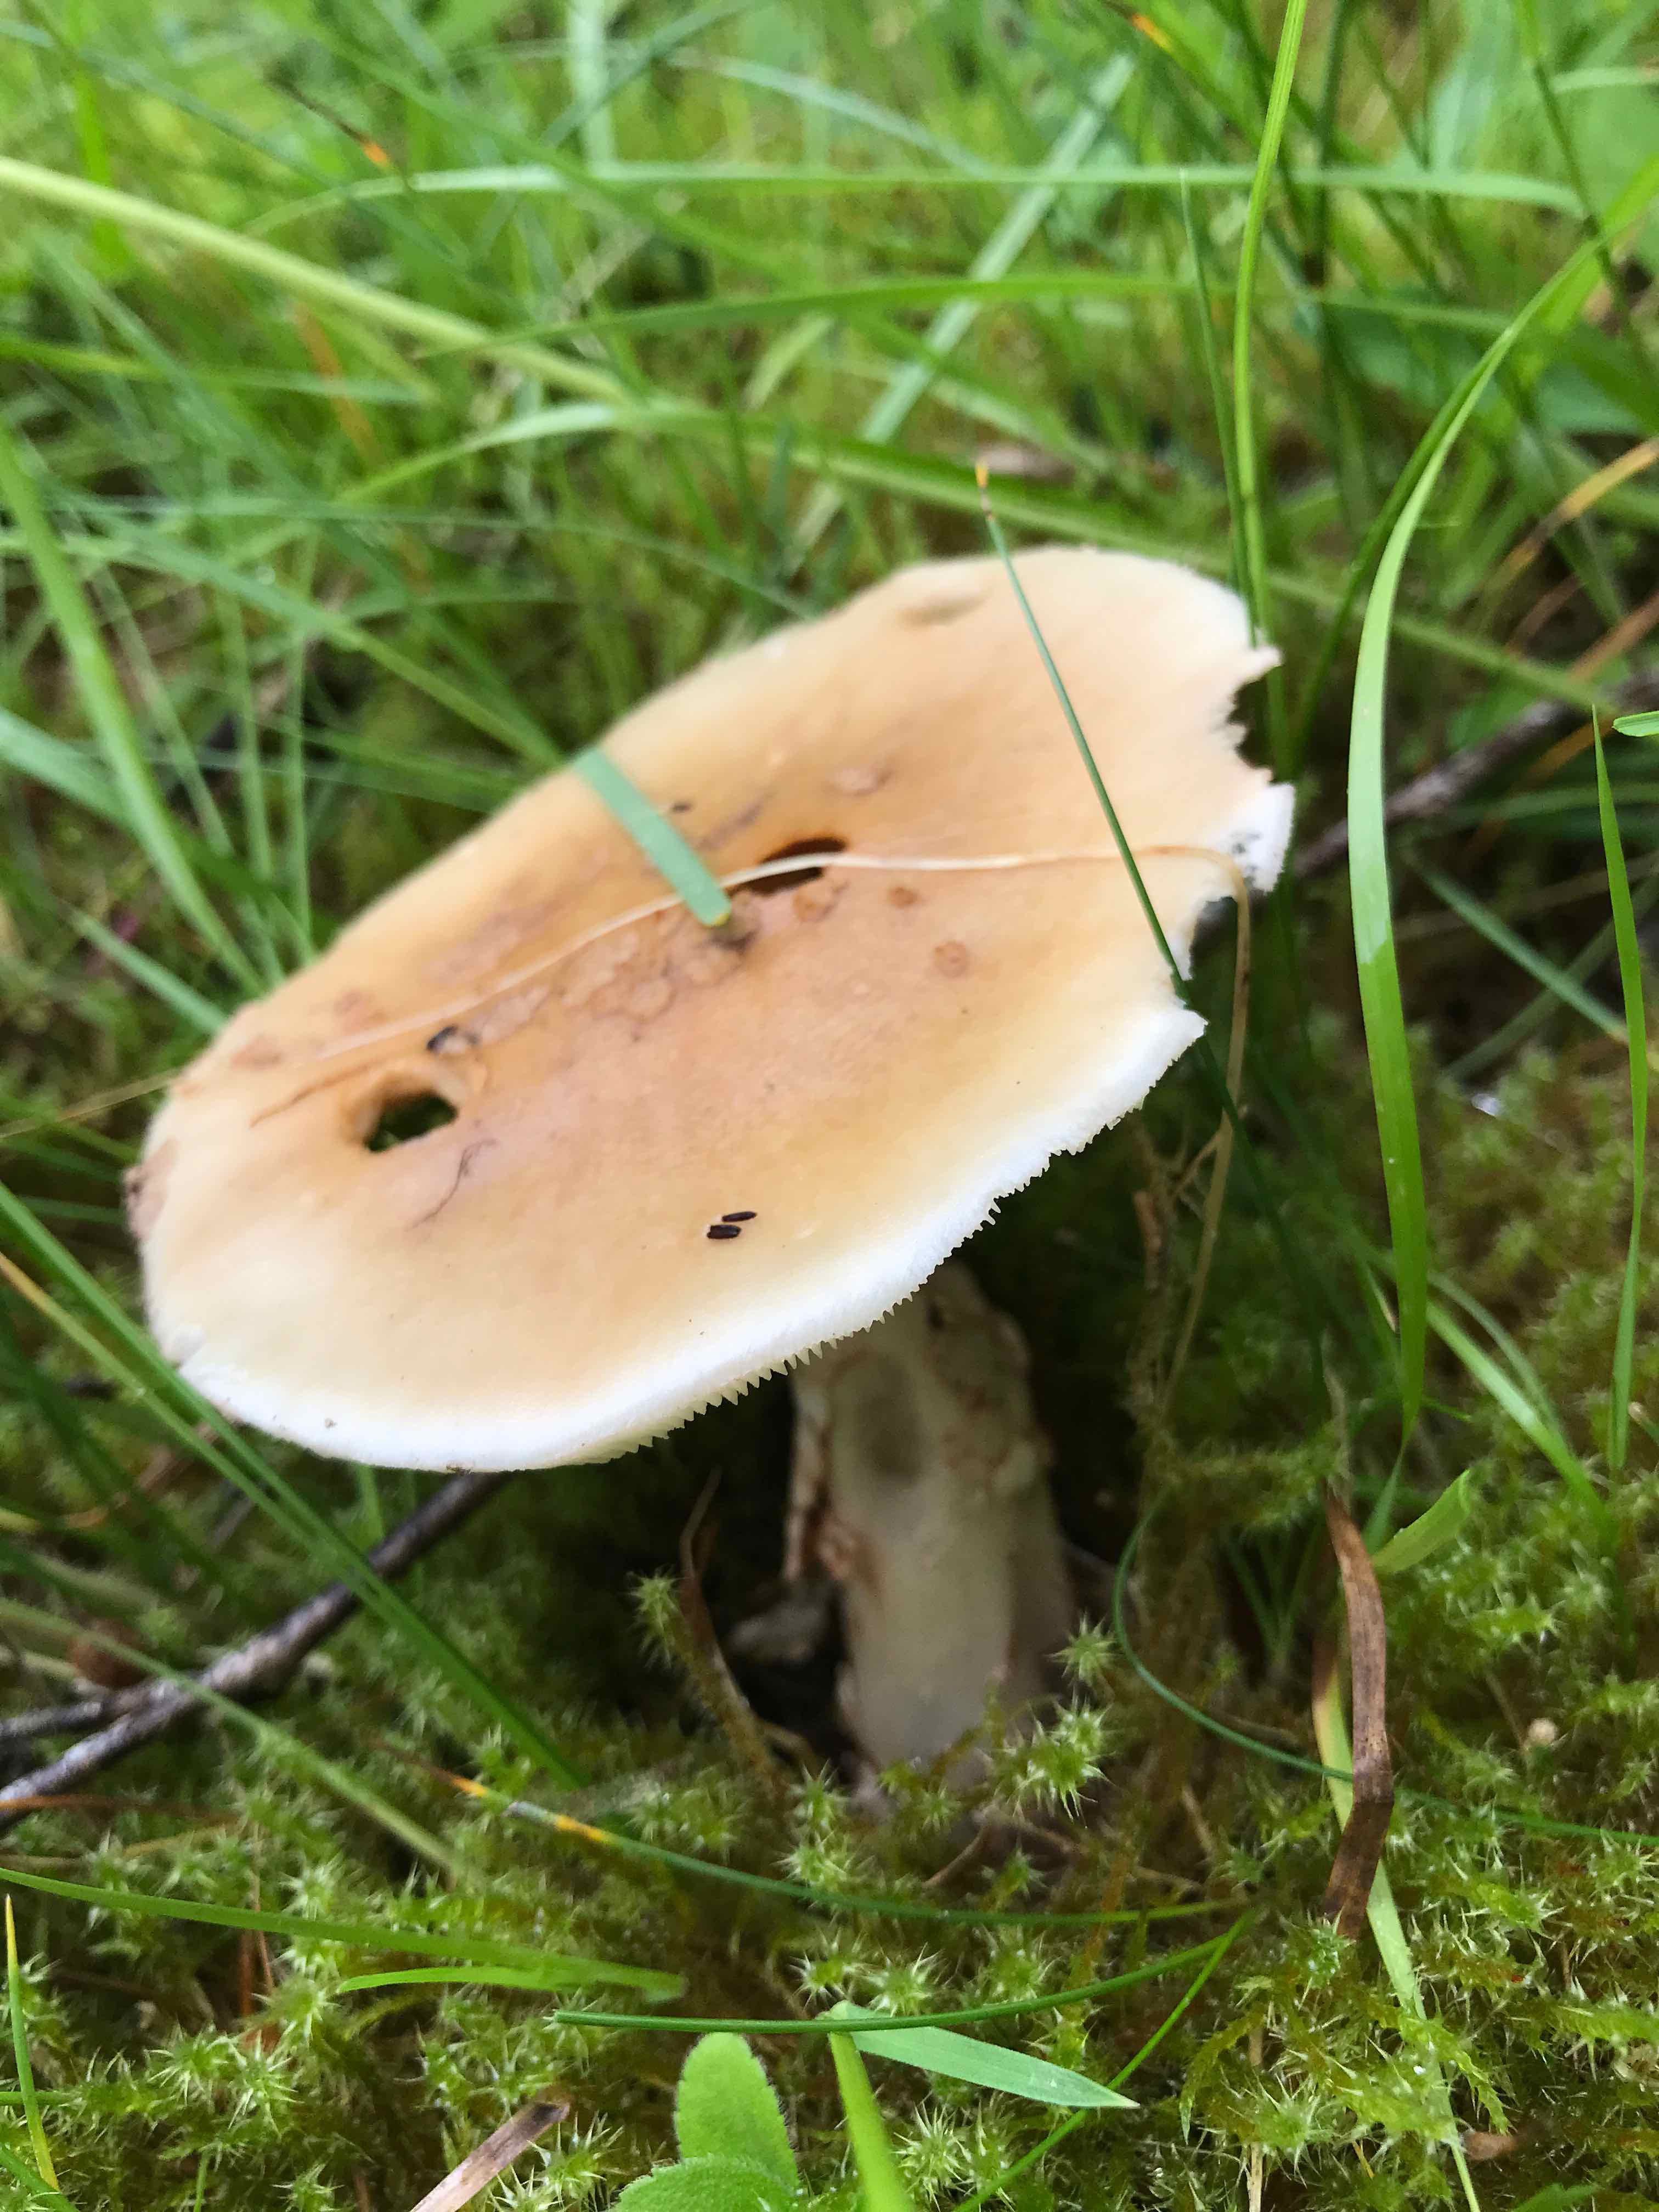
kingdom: Fungi
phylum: Basidiomycota
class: Agaricomycetes
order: Agaricales
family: Amanitaceae
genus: Amanita
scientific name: Amanita rubescens
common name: rødmende fluesvamp
